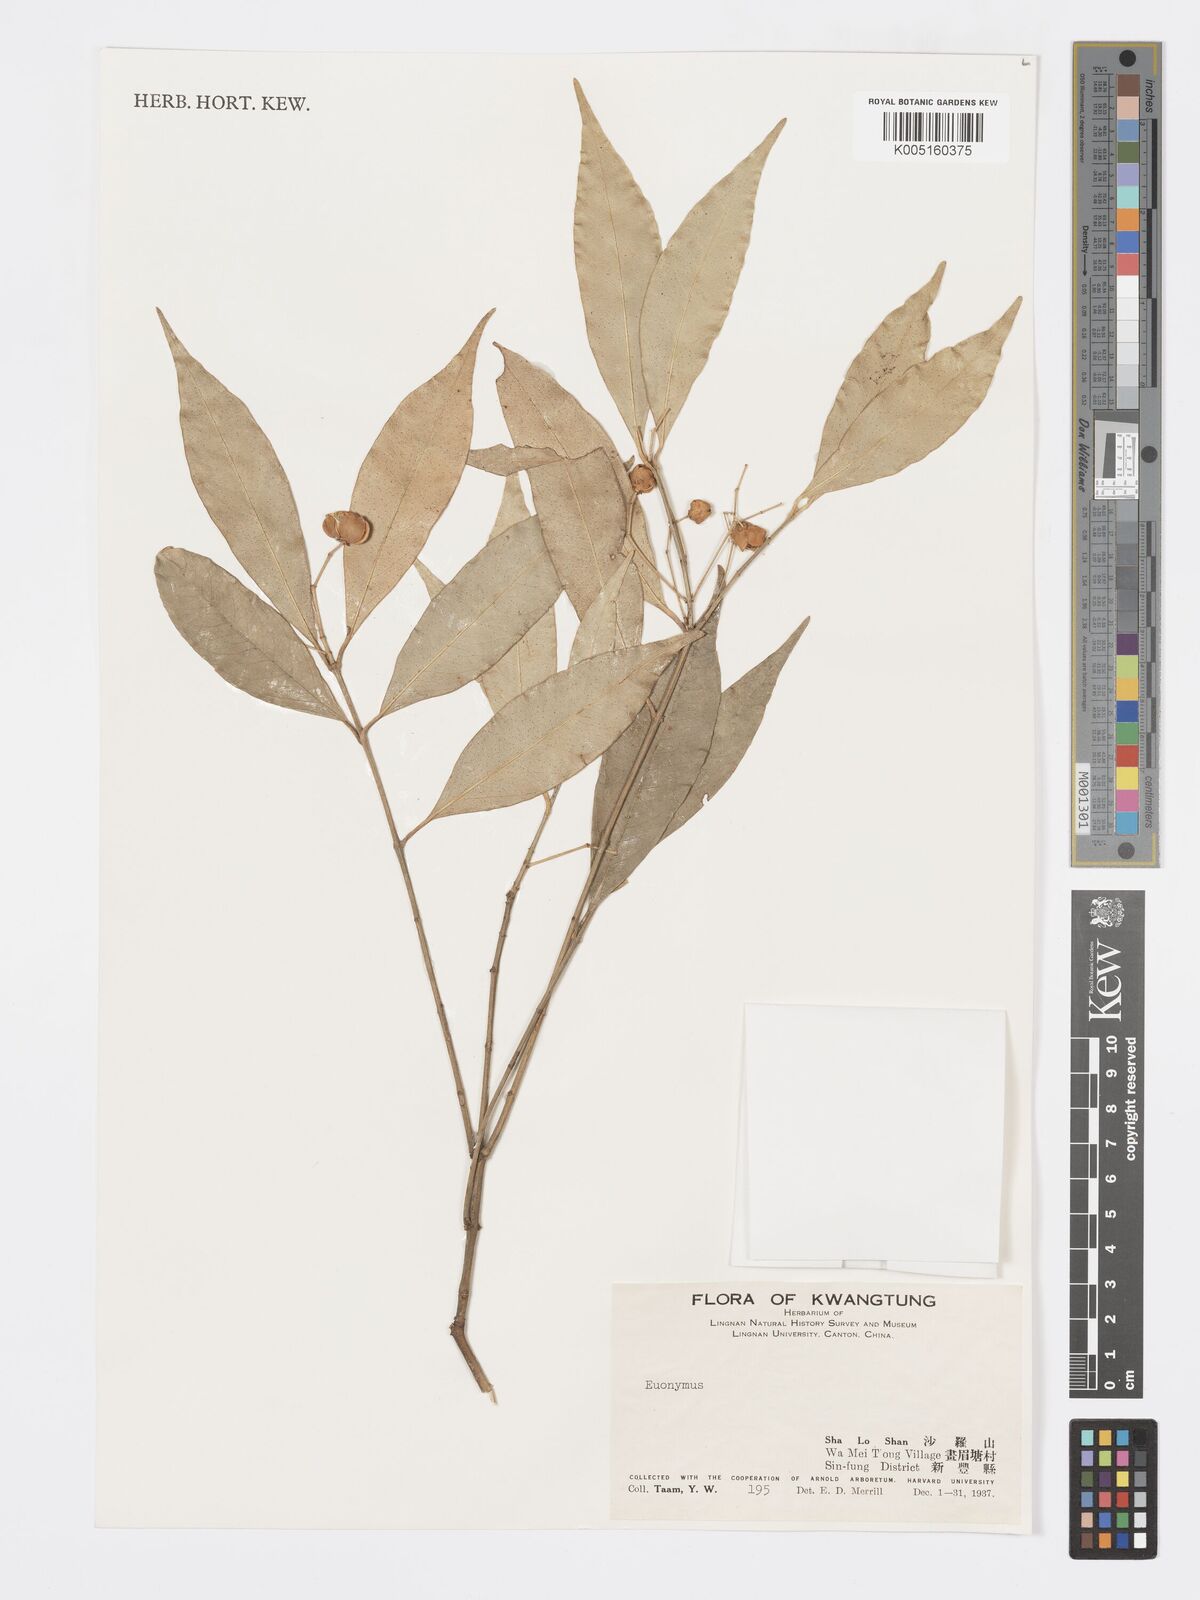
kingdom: Plantae
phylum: Tracheophyta
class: Magnoliopsida
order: Celastrales
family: Celastraceae
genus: Euonymus
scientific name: Euonymus
